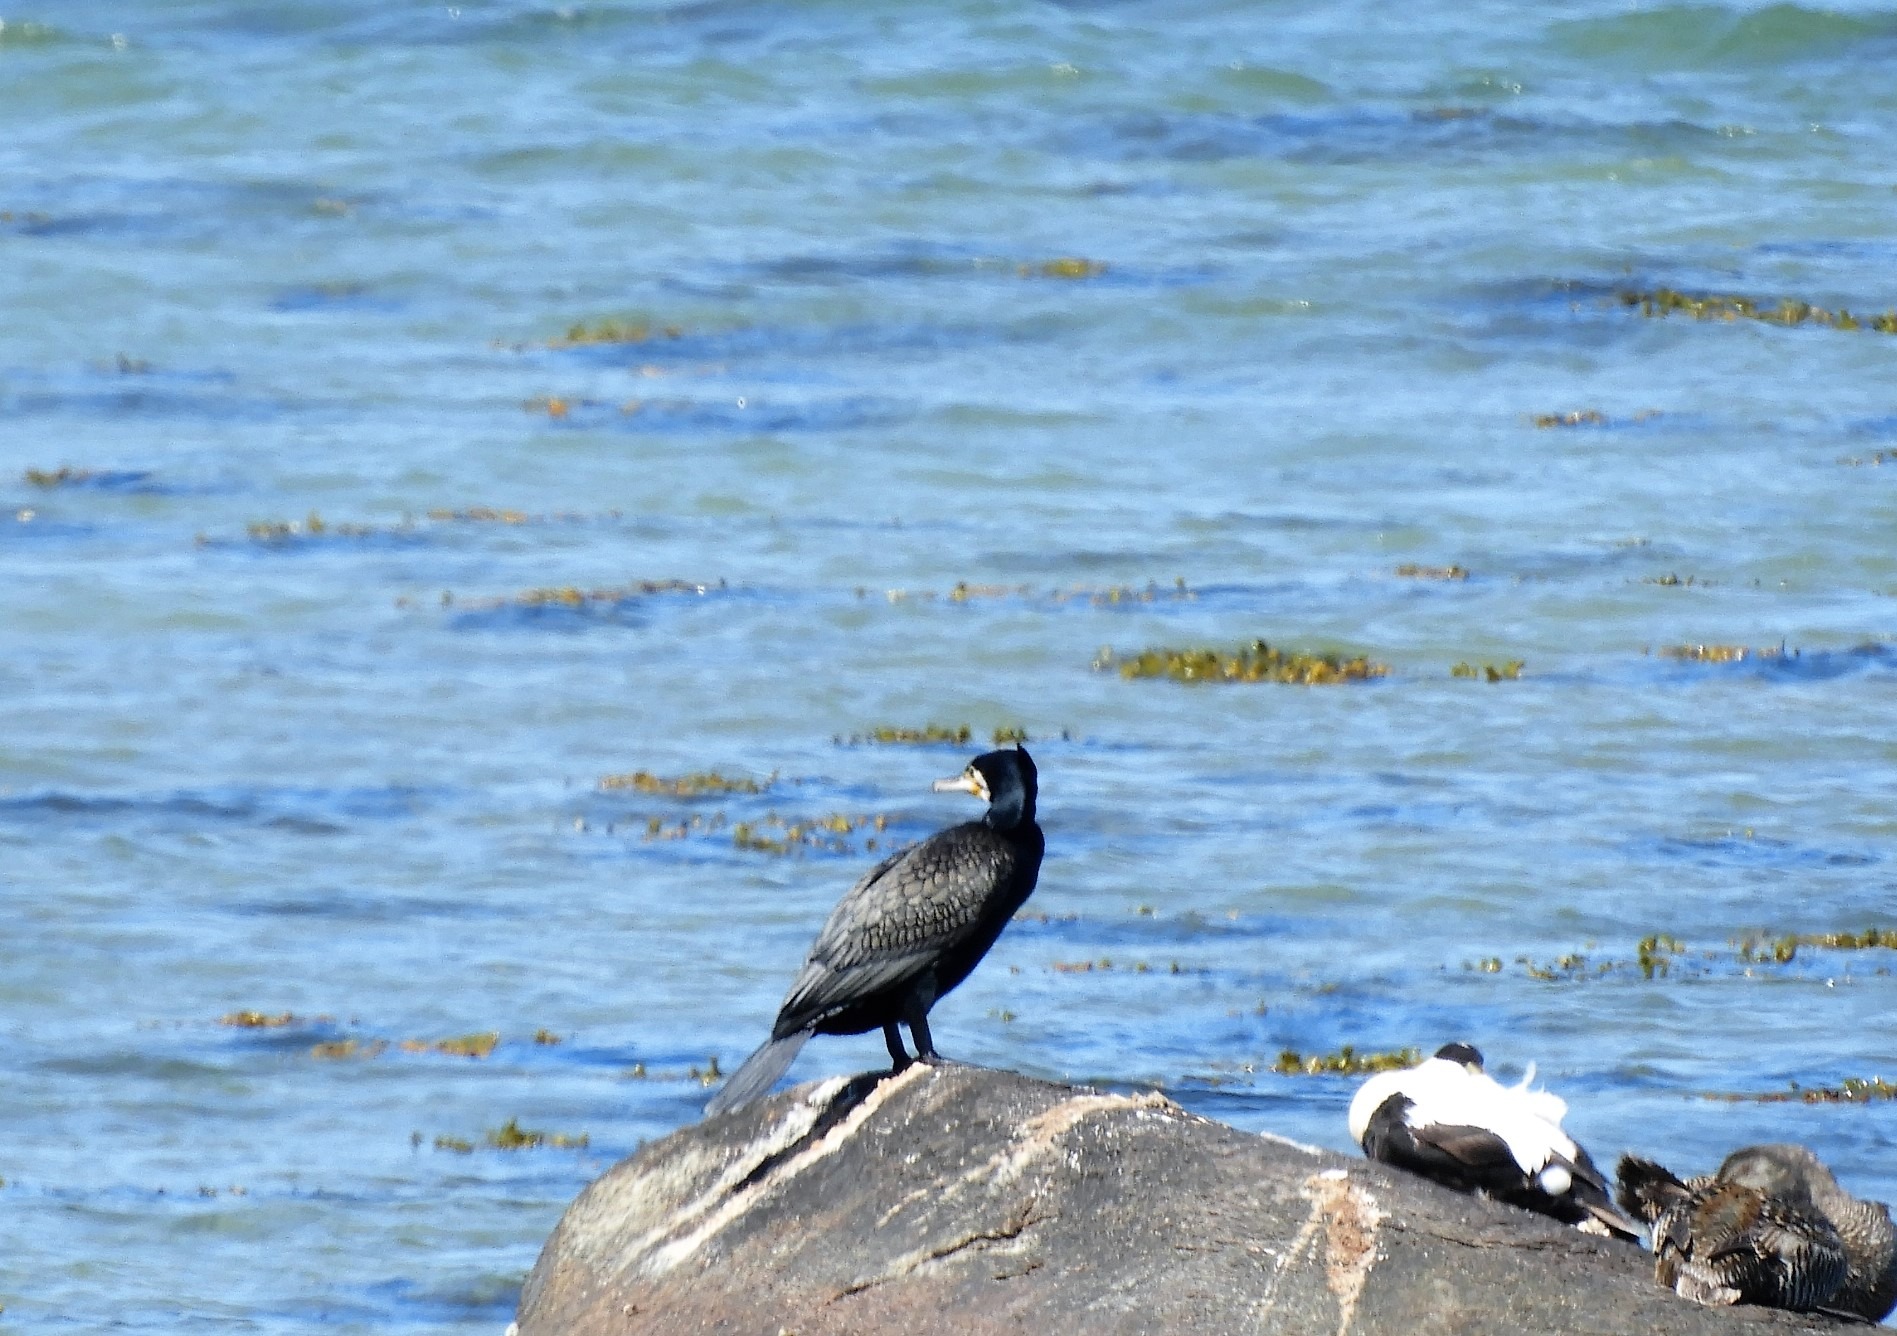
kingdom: Animalia
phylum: Chordata
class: Aves
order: Suliformes
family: Phalacrocoracidae
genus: Phalacrocorax
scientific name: Phalacrocorax carbo
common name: Skarv
